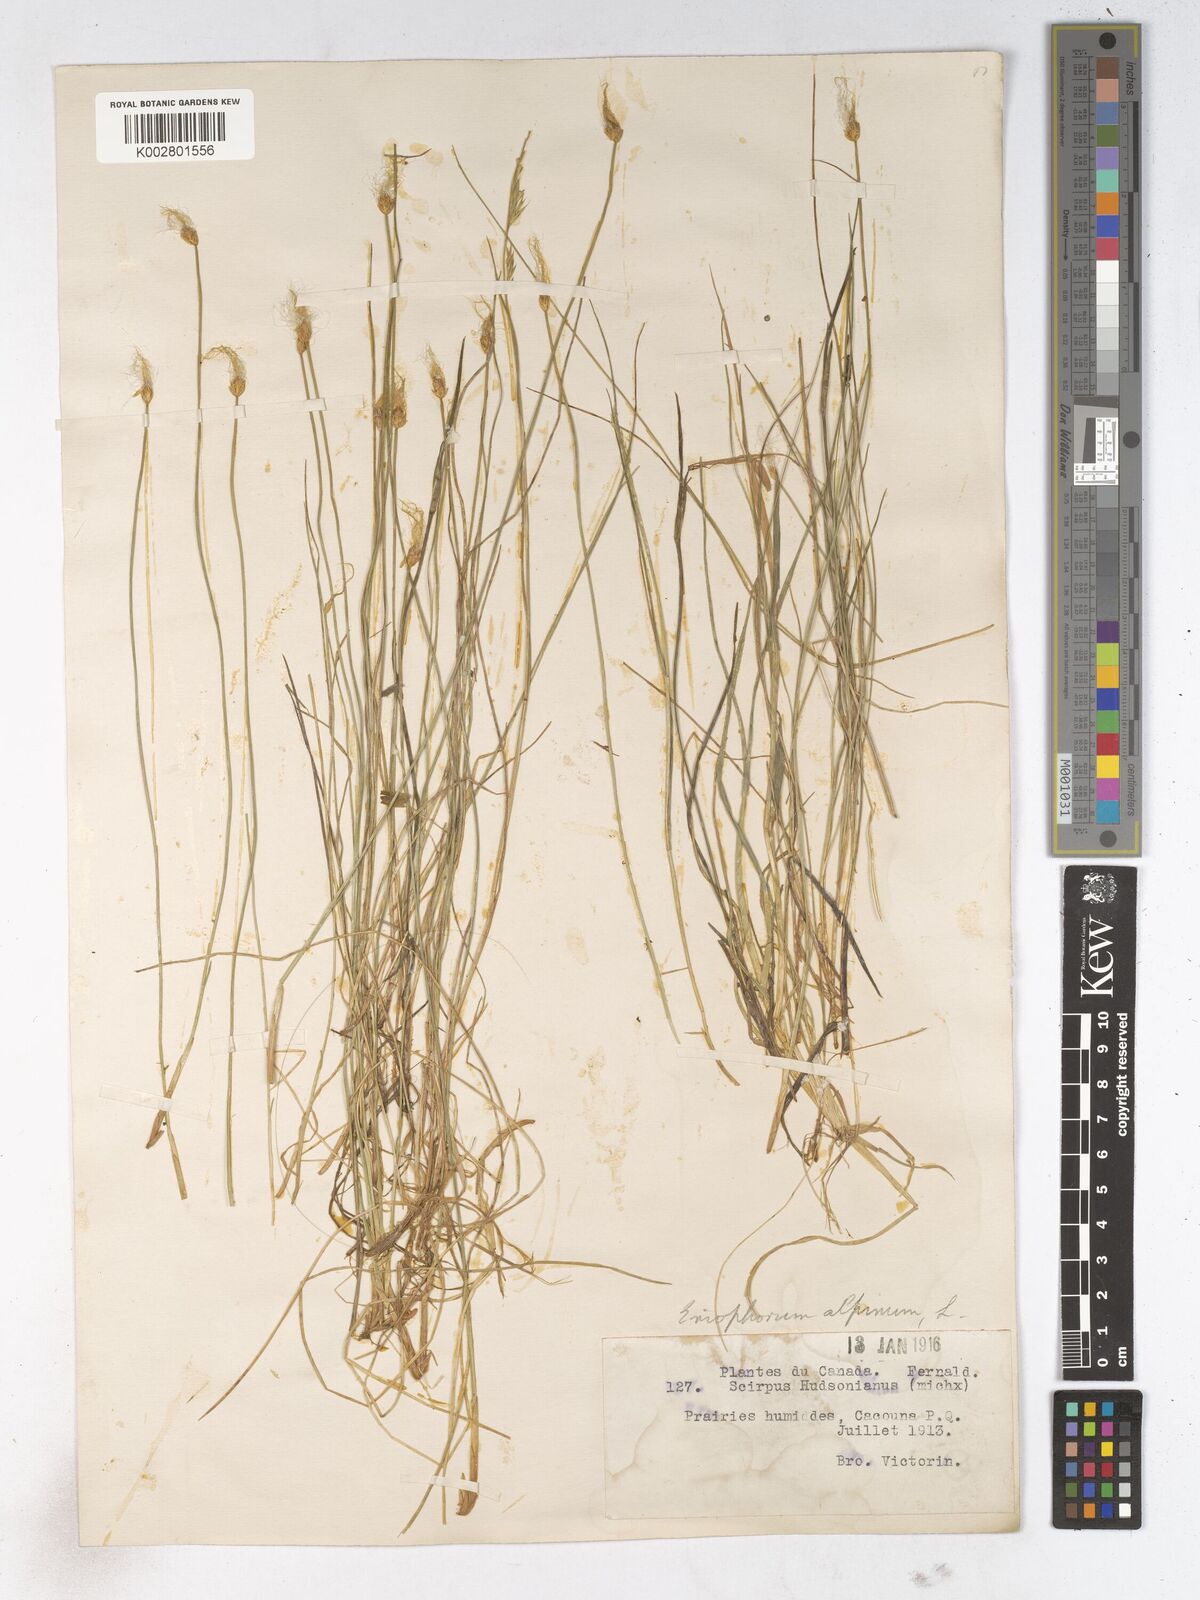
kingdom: Plantae
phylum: Tracheophyta
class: Liliopsida
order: Poales
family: Cyperaceae
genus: Trichophorum
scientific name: Trichophorum alpinum
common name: Alpine bulrush
